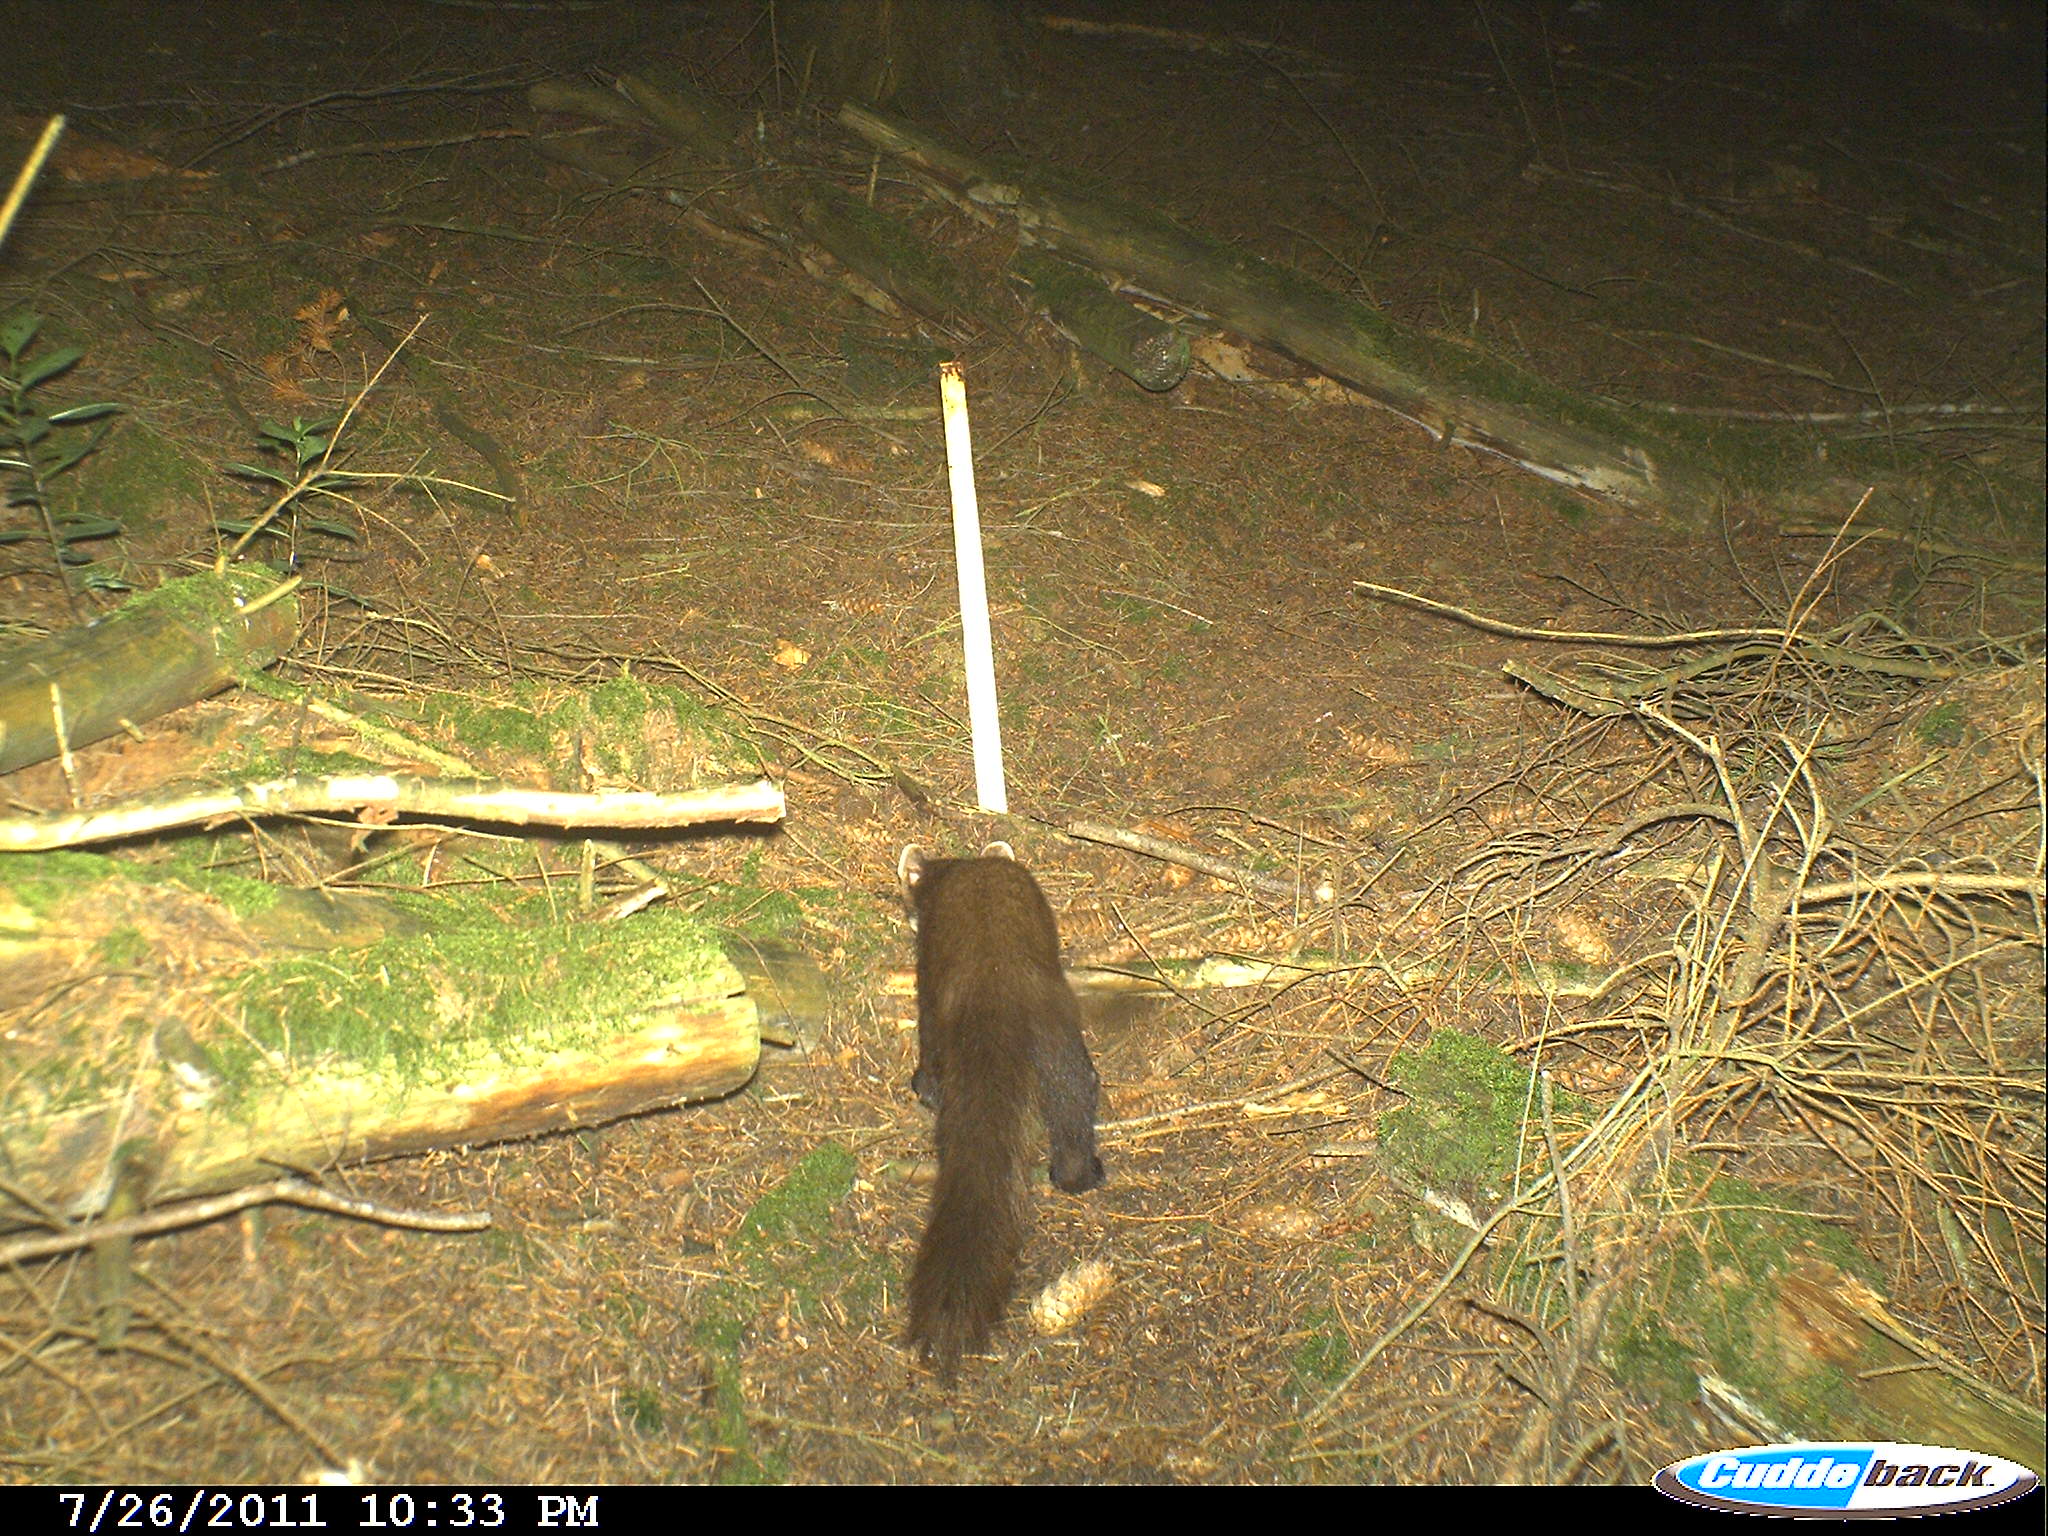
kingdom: Animalia
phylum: Chordata
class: Mammalia
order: Carnivora
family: Mustelidae
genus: Martes
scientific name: Martes martes
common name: European pine marten
